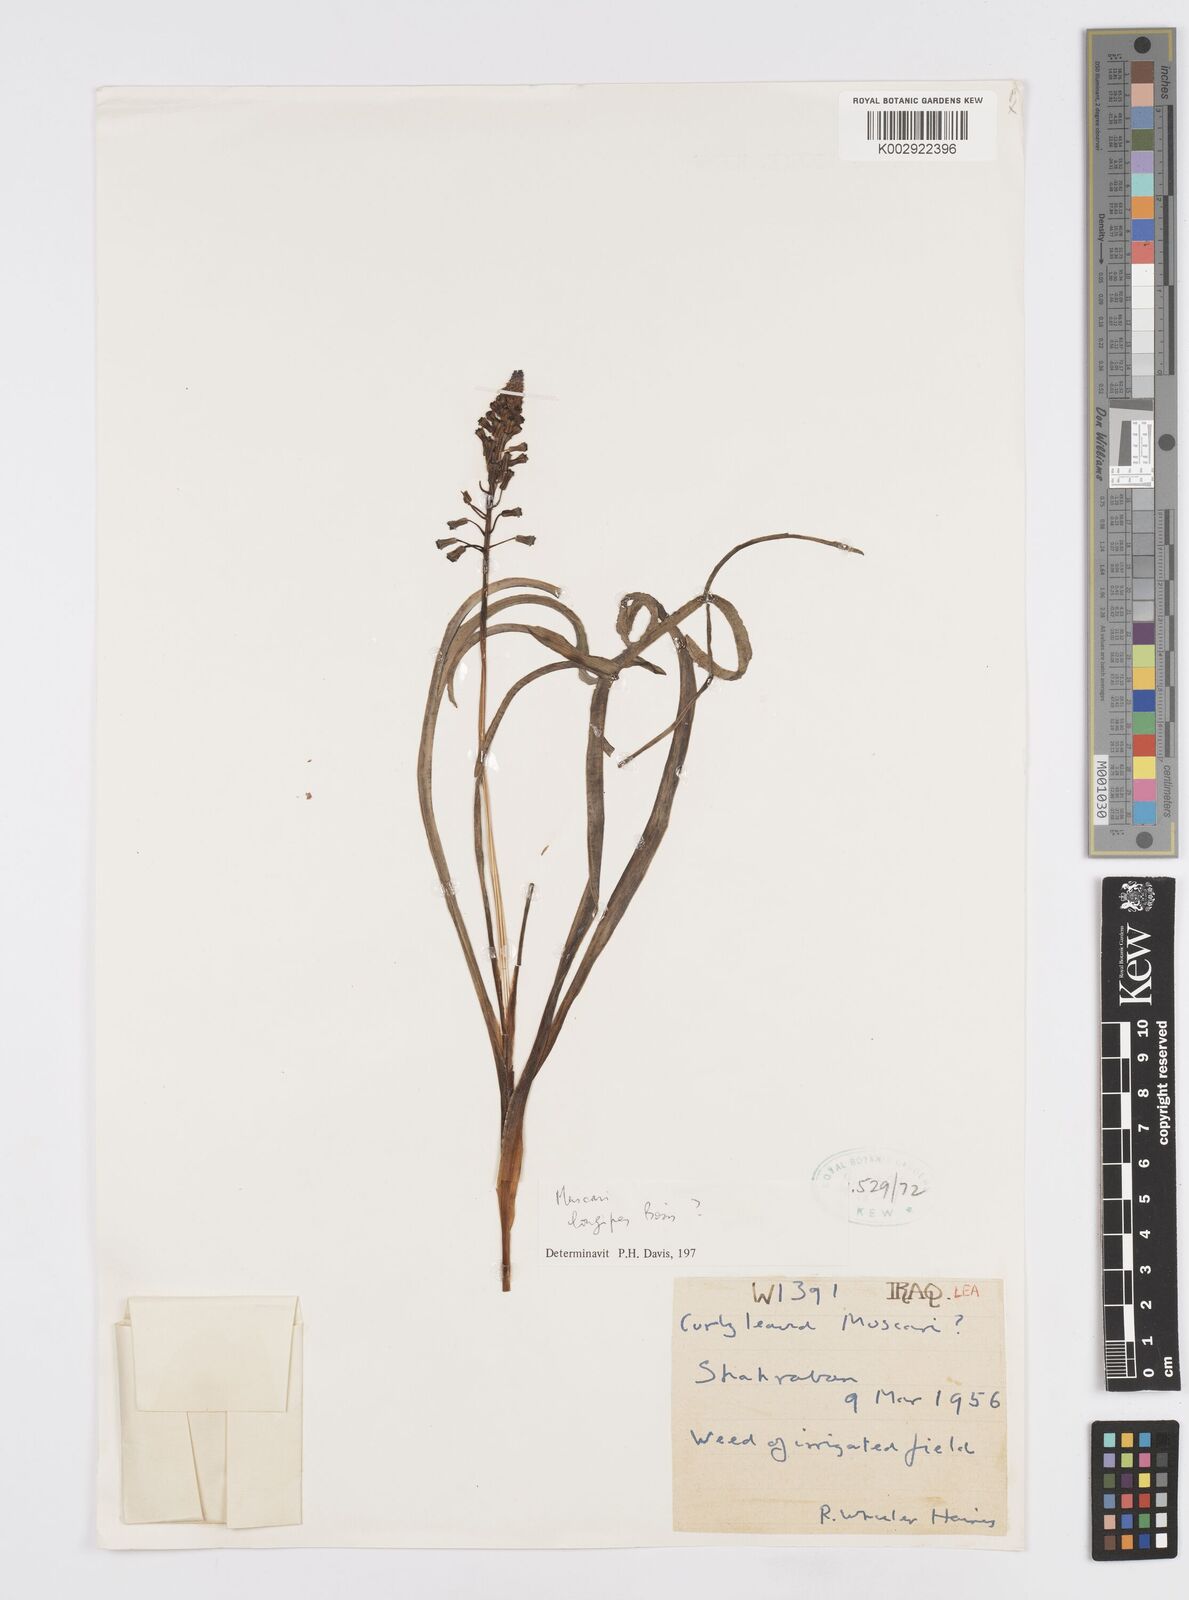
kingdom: Plantae
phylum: Tracheophyta
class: Liliopsida
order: Asparagales
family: Asparagaceae
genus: Muscari
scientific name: Muscari longipes
